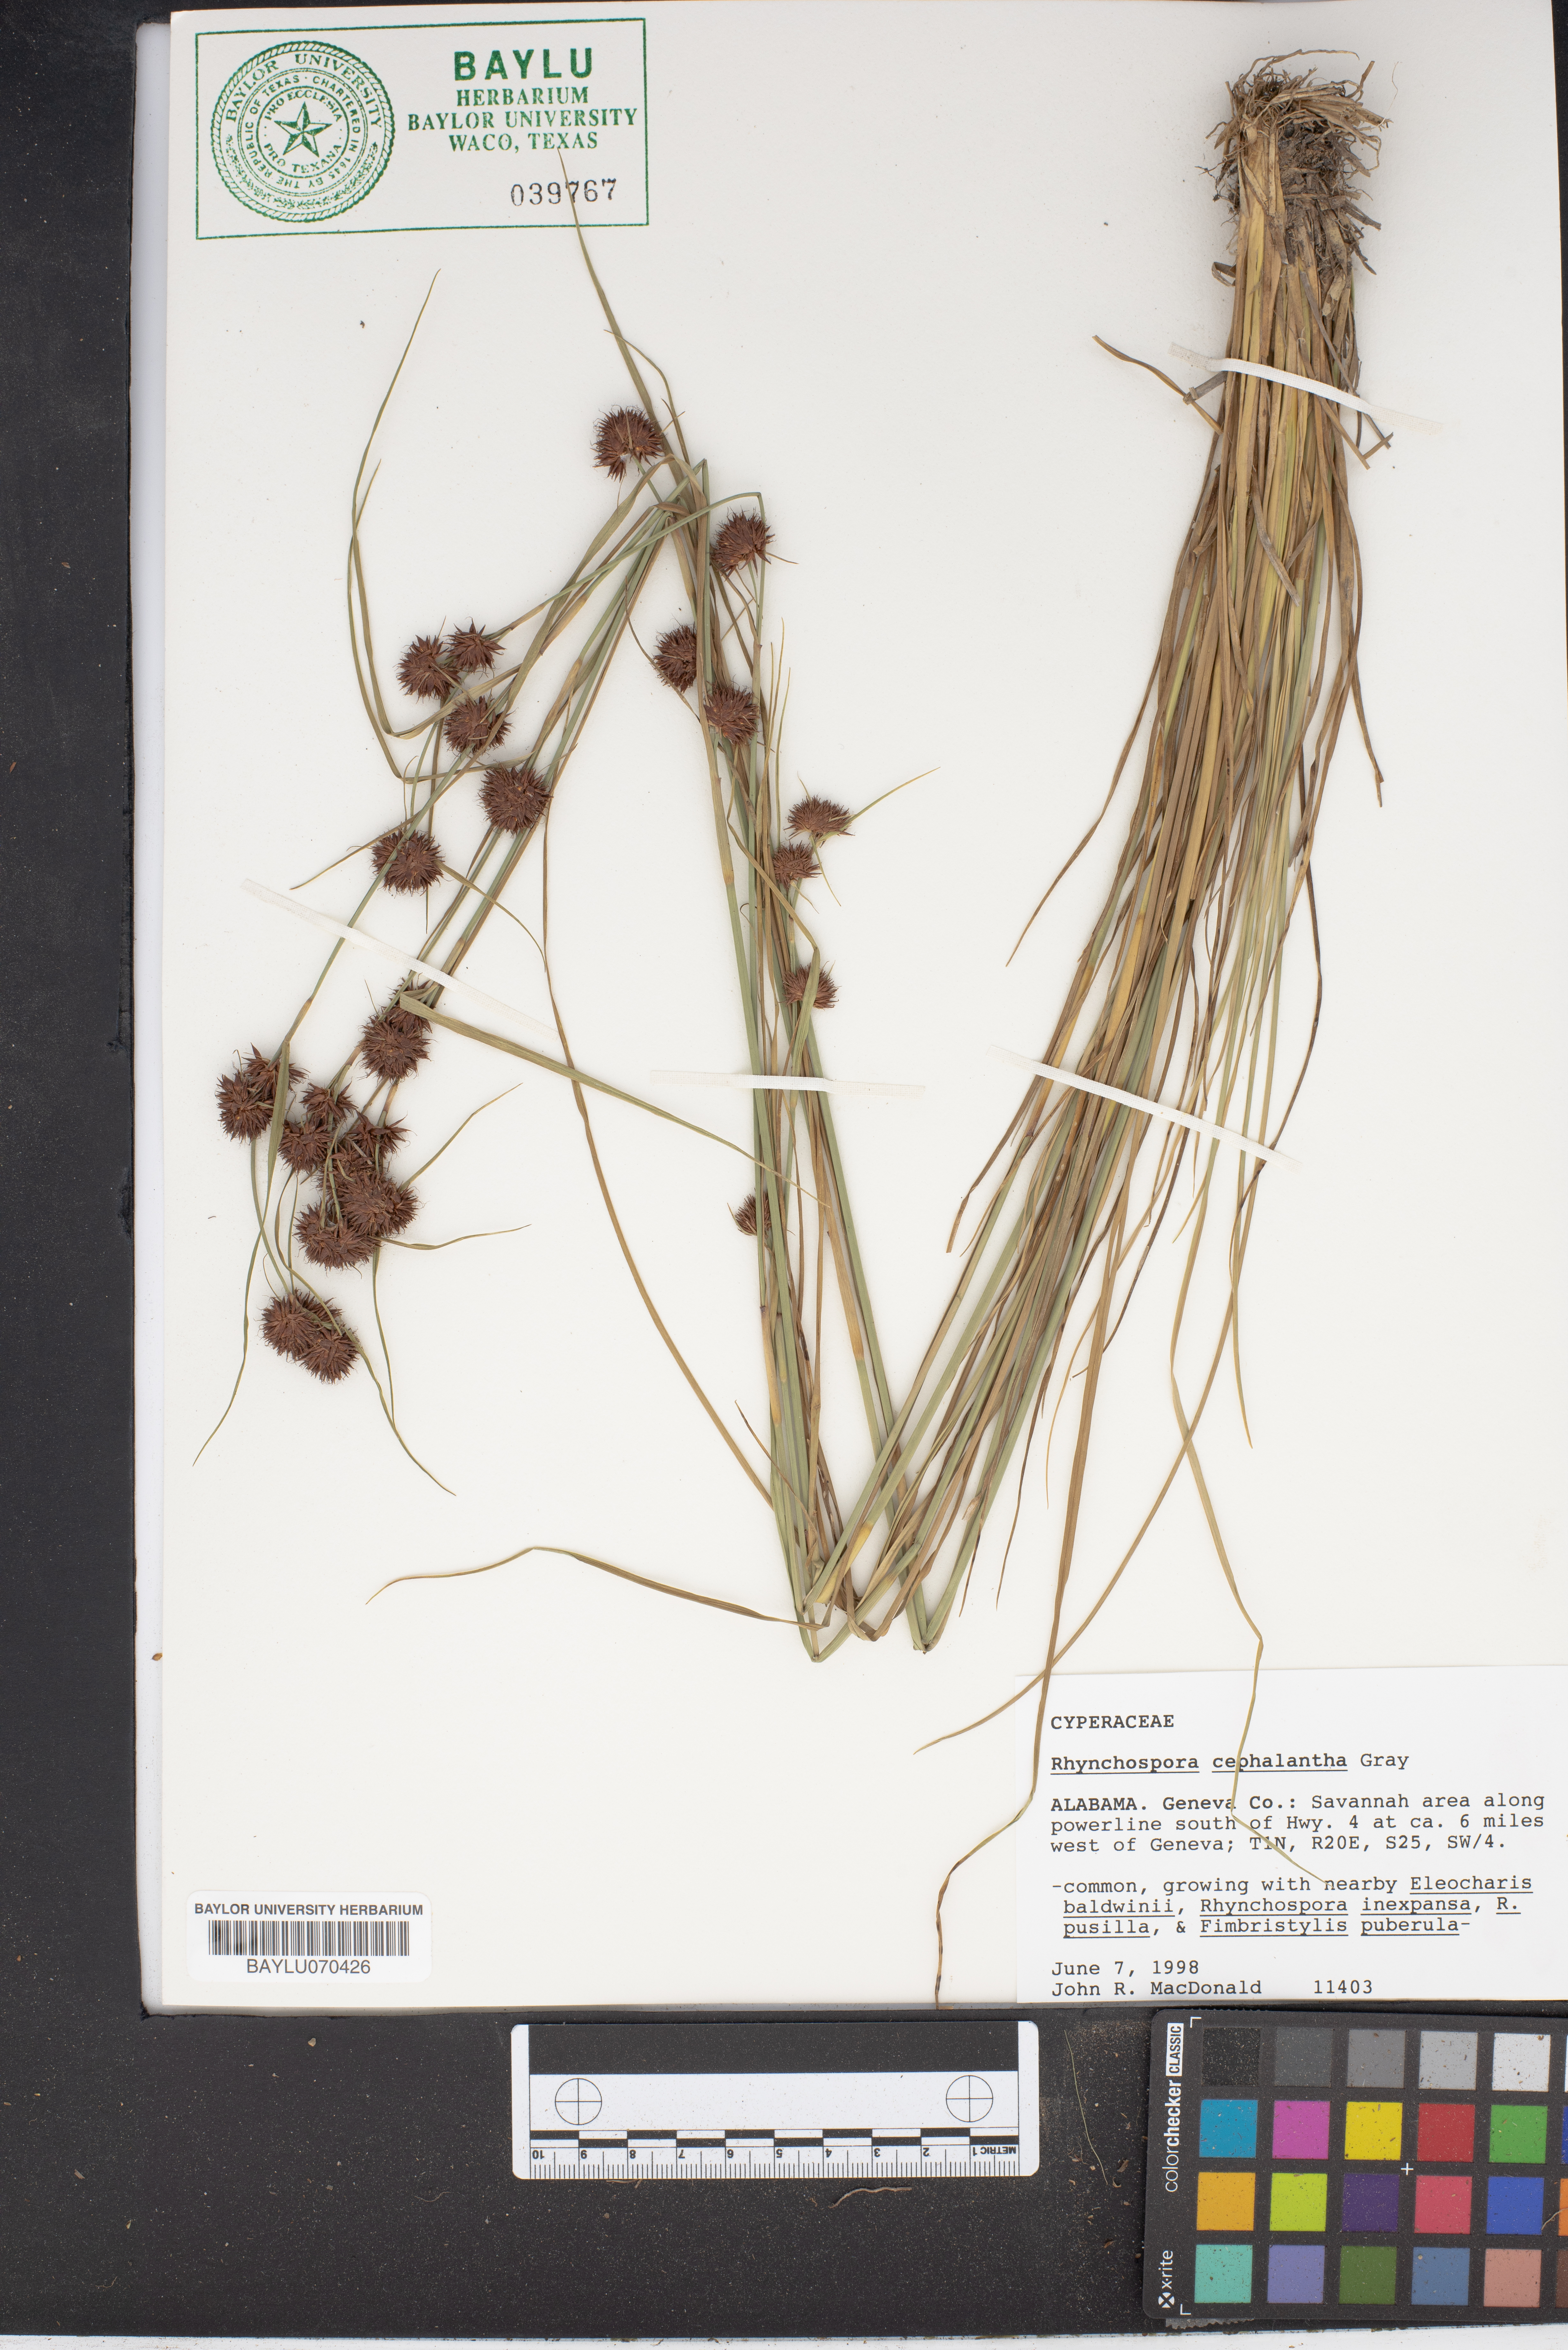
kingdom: Plantae
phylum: Tracheophyta
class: Liliopsida
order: Poales
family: Cyperaceae
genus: Rhynchospora
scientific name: Rhynchospora cephalantha
